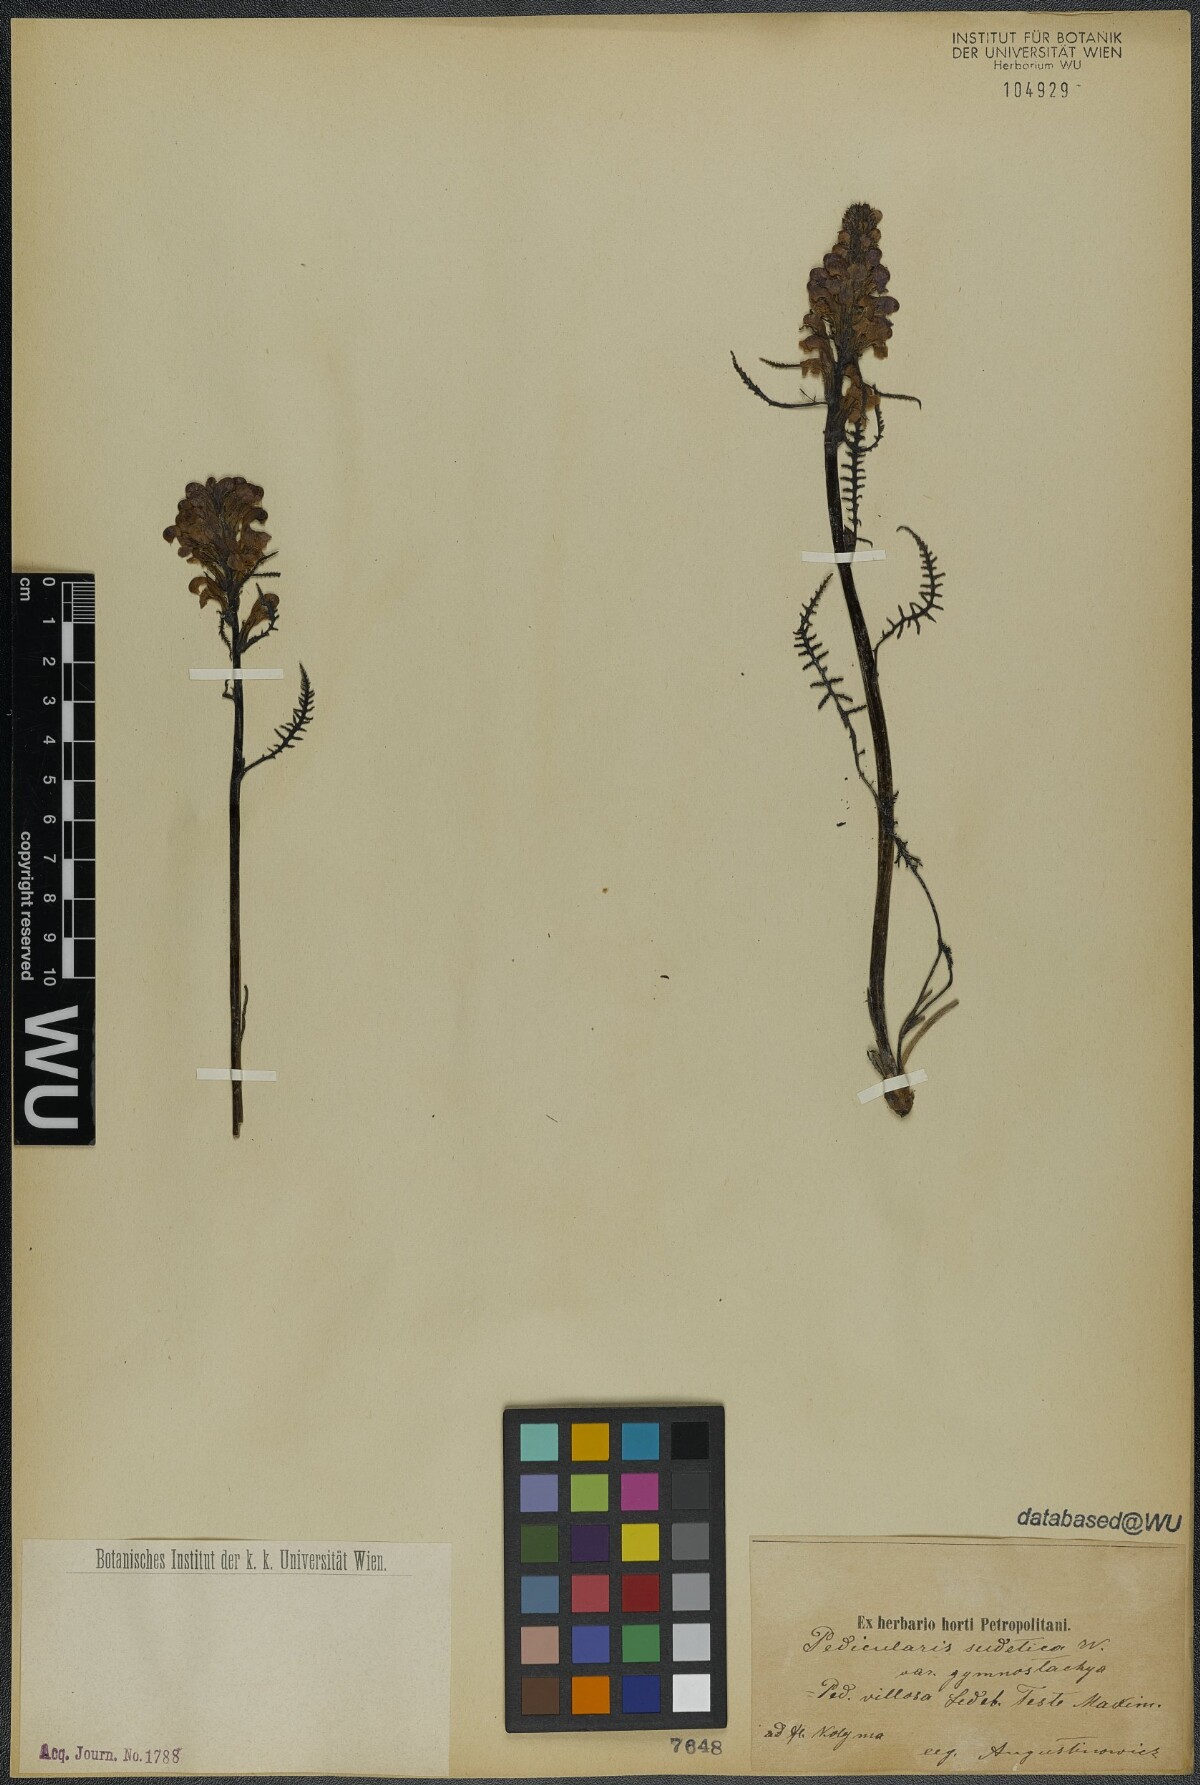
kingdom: Plantae
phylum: Tracheophyta
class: Magnoliopsida
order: Lamiales
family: Orobanchaceae
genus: Pedicularis
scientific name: Pedicularis gymnostachya
